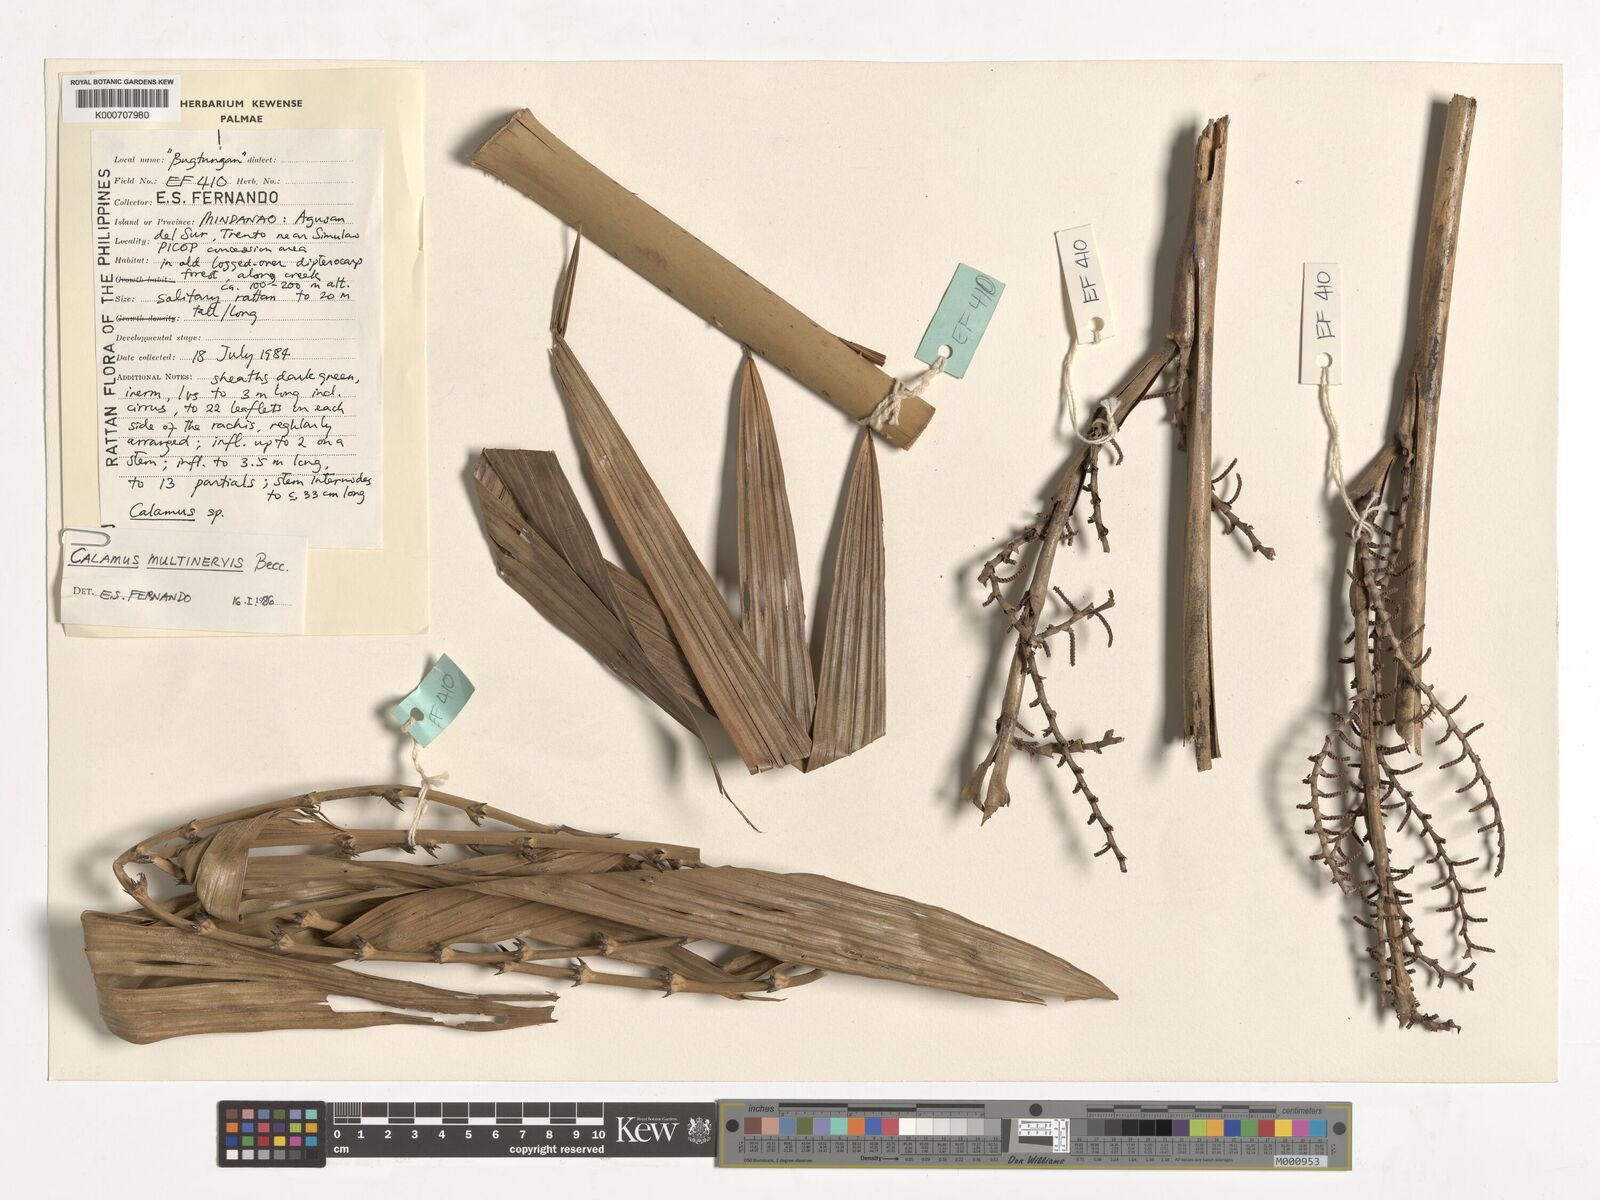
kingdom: Plantae
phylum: Tracheophyta
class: Liliopsida
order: Arecales
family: Arecaceae
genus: Calamus
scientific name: Calamus moseleyanus
